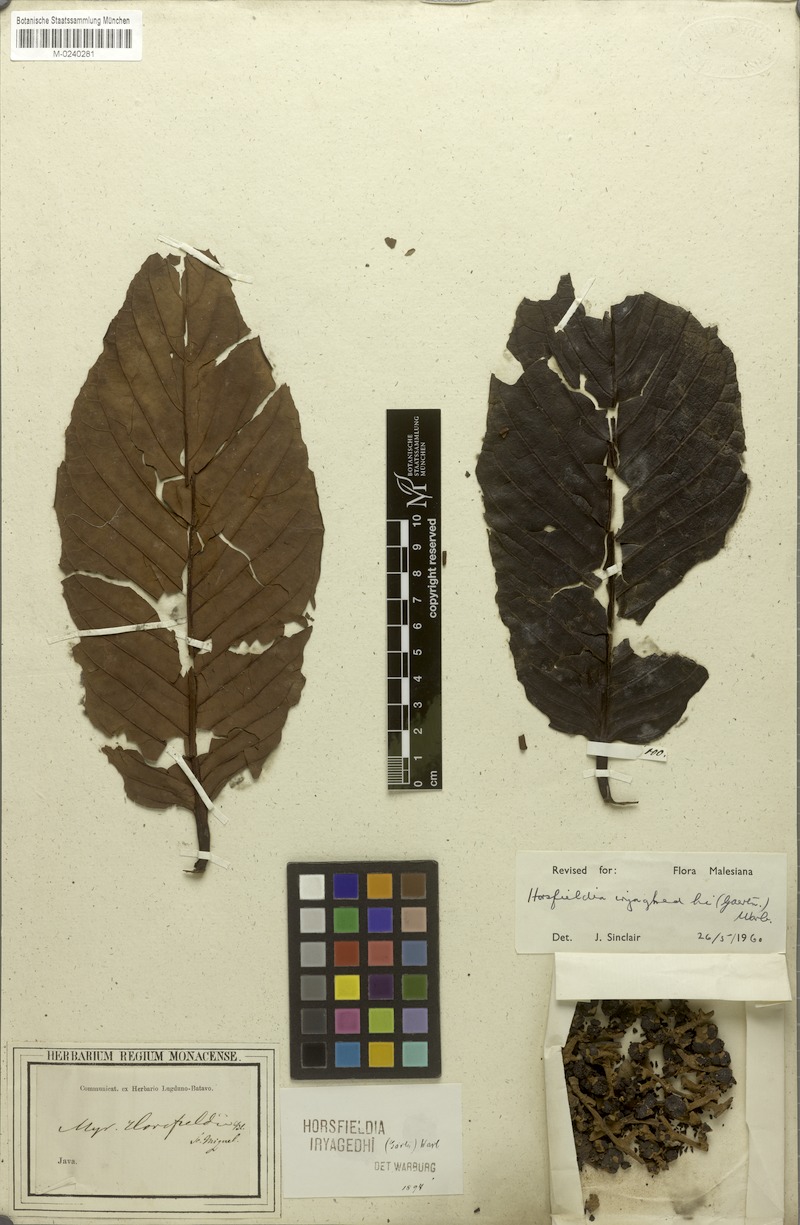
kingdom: Plantae
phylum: Tracheophyta
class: Magnoliopsida
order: Magnoliales
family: Myristicaceae
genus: Horsfieldia
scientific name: Horsfieldia iryaghedhi
